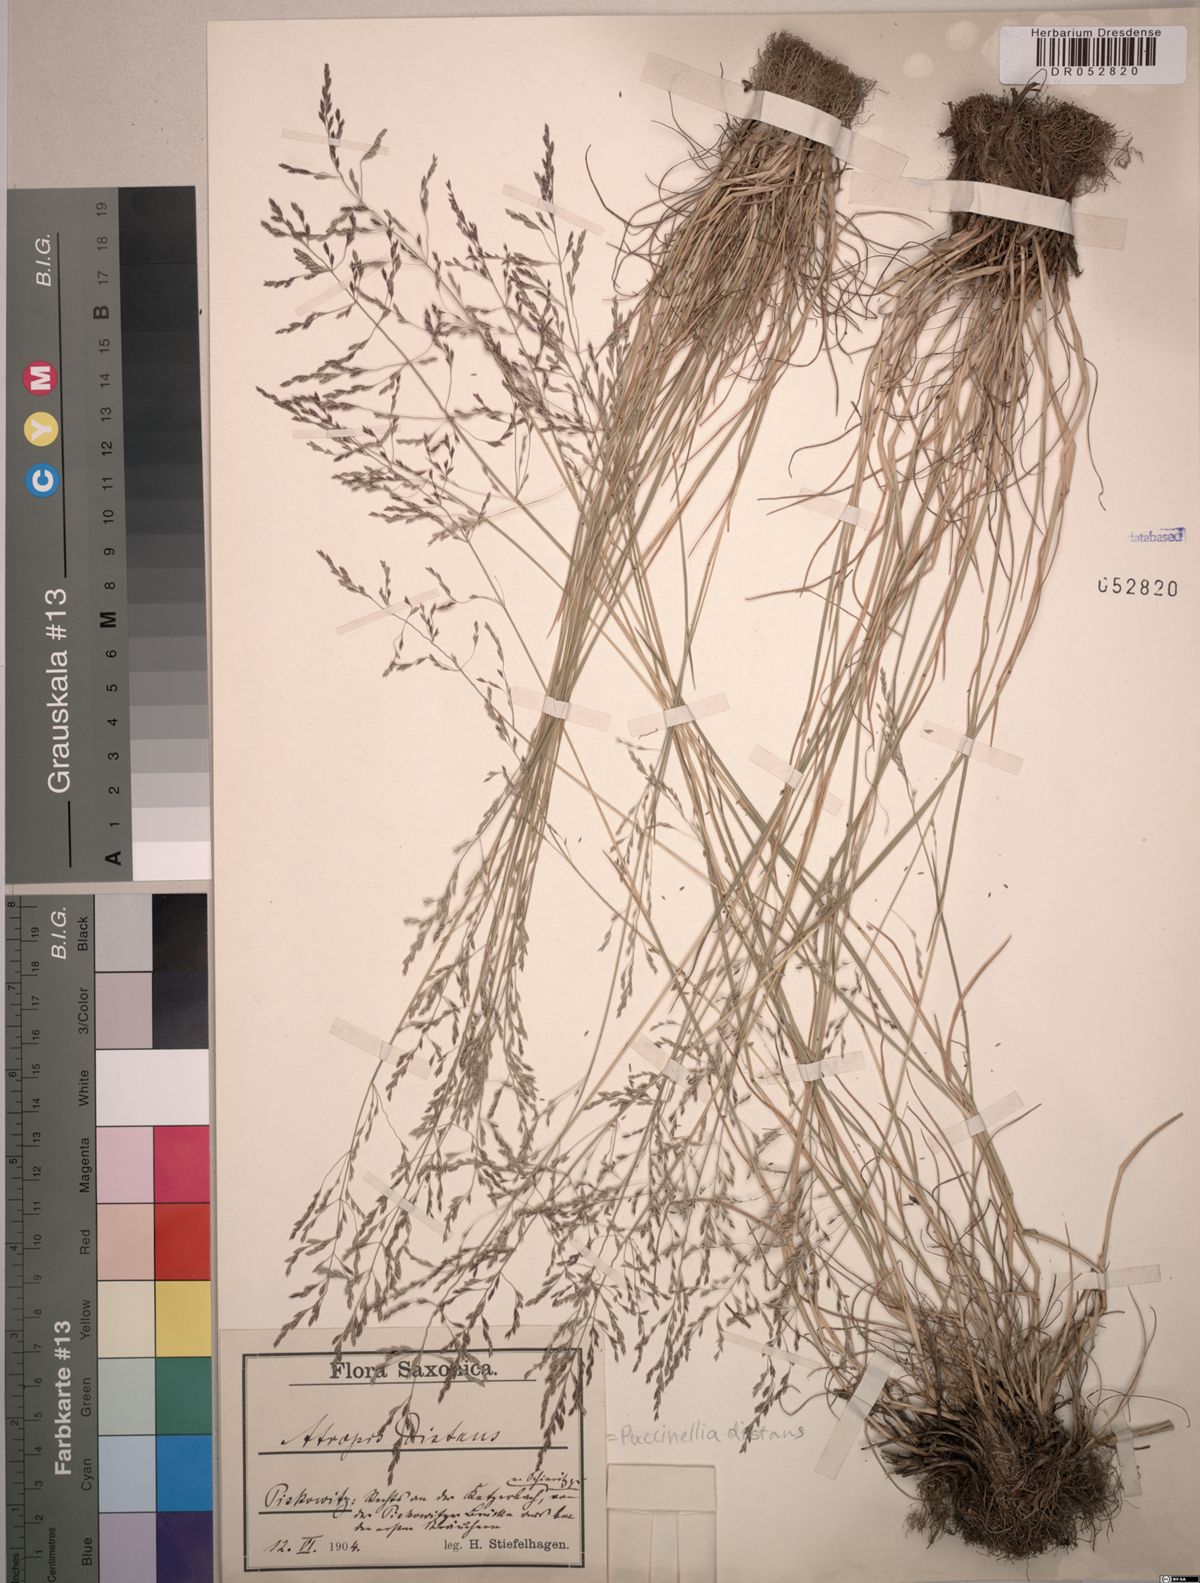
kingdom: Plantae
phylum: Tracheophyta
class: Liliopsida
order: Poales
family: Poaceae
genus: Puccinellia
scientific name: Puccinellia distans
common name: Weeping alkaligrass
